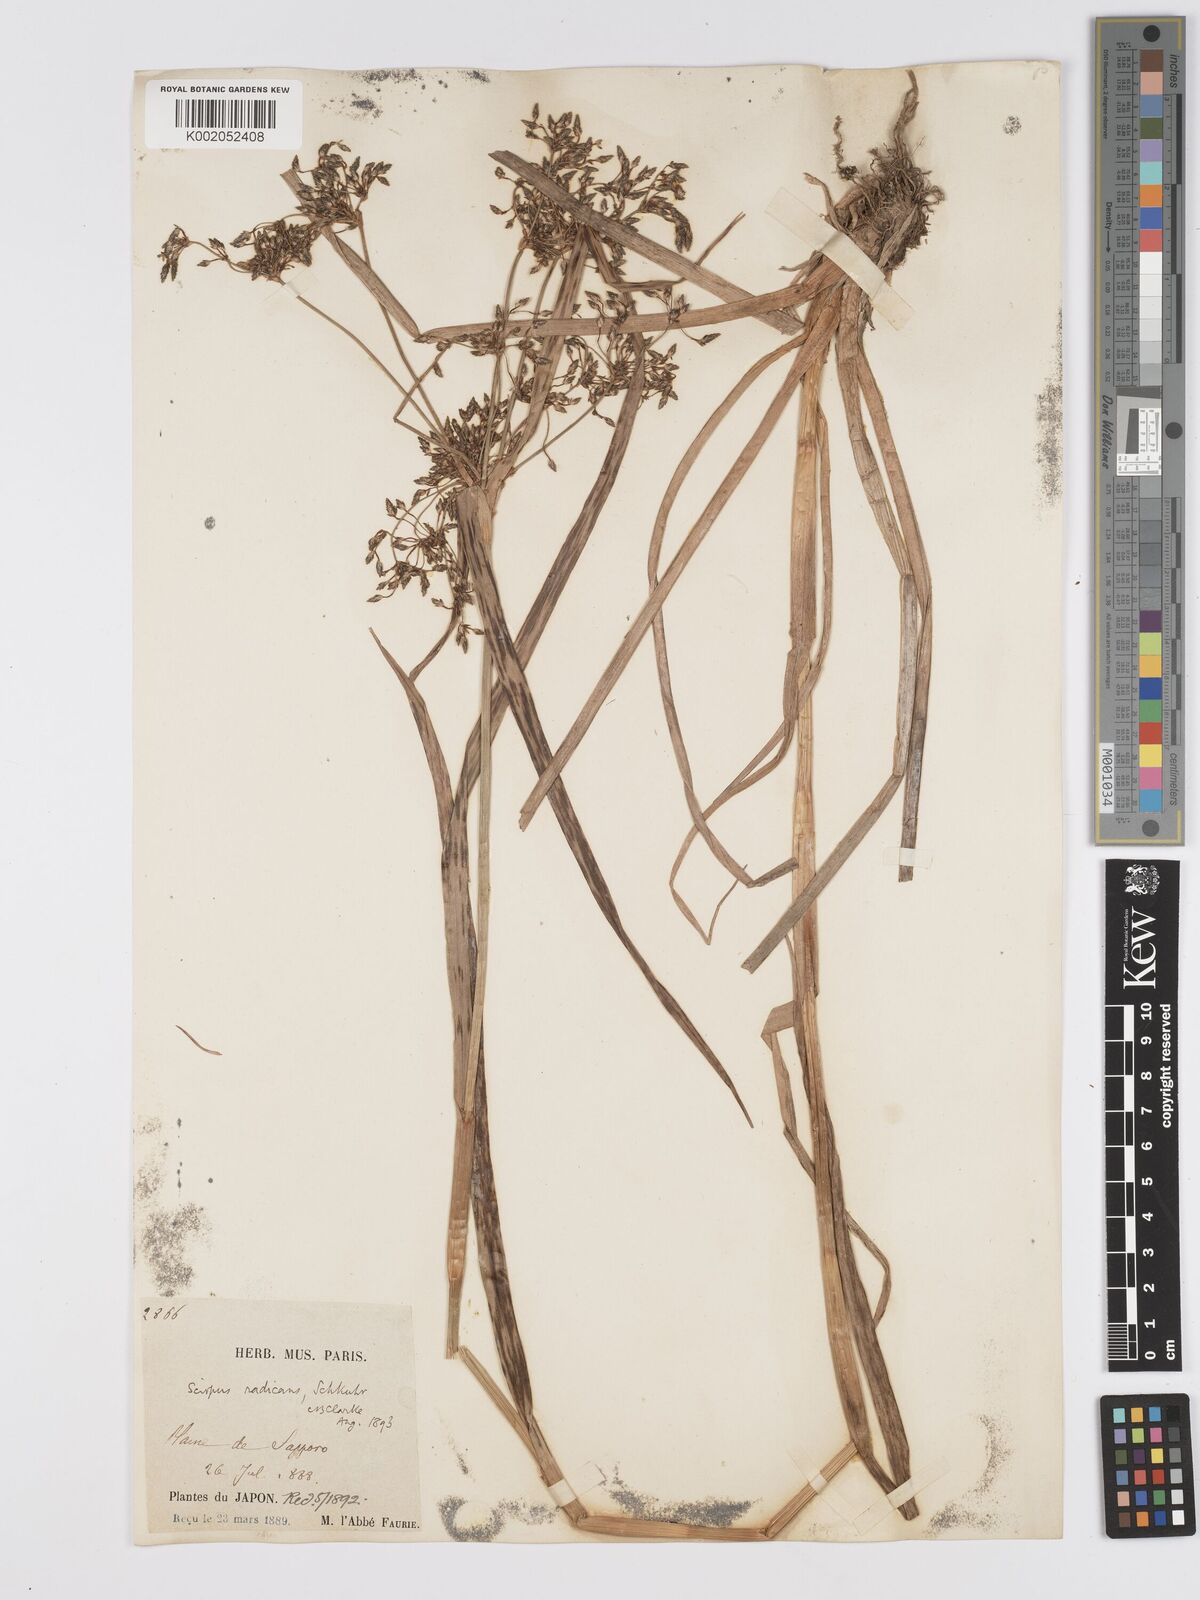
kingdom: Plantae
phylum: Tracheophyta
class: Liliopsida
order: Poales
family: Cyperaceae
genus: Scirpus
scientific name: Scirpus radicans
